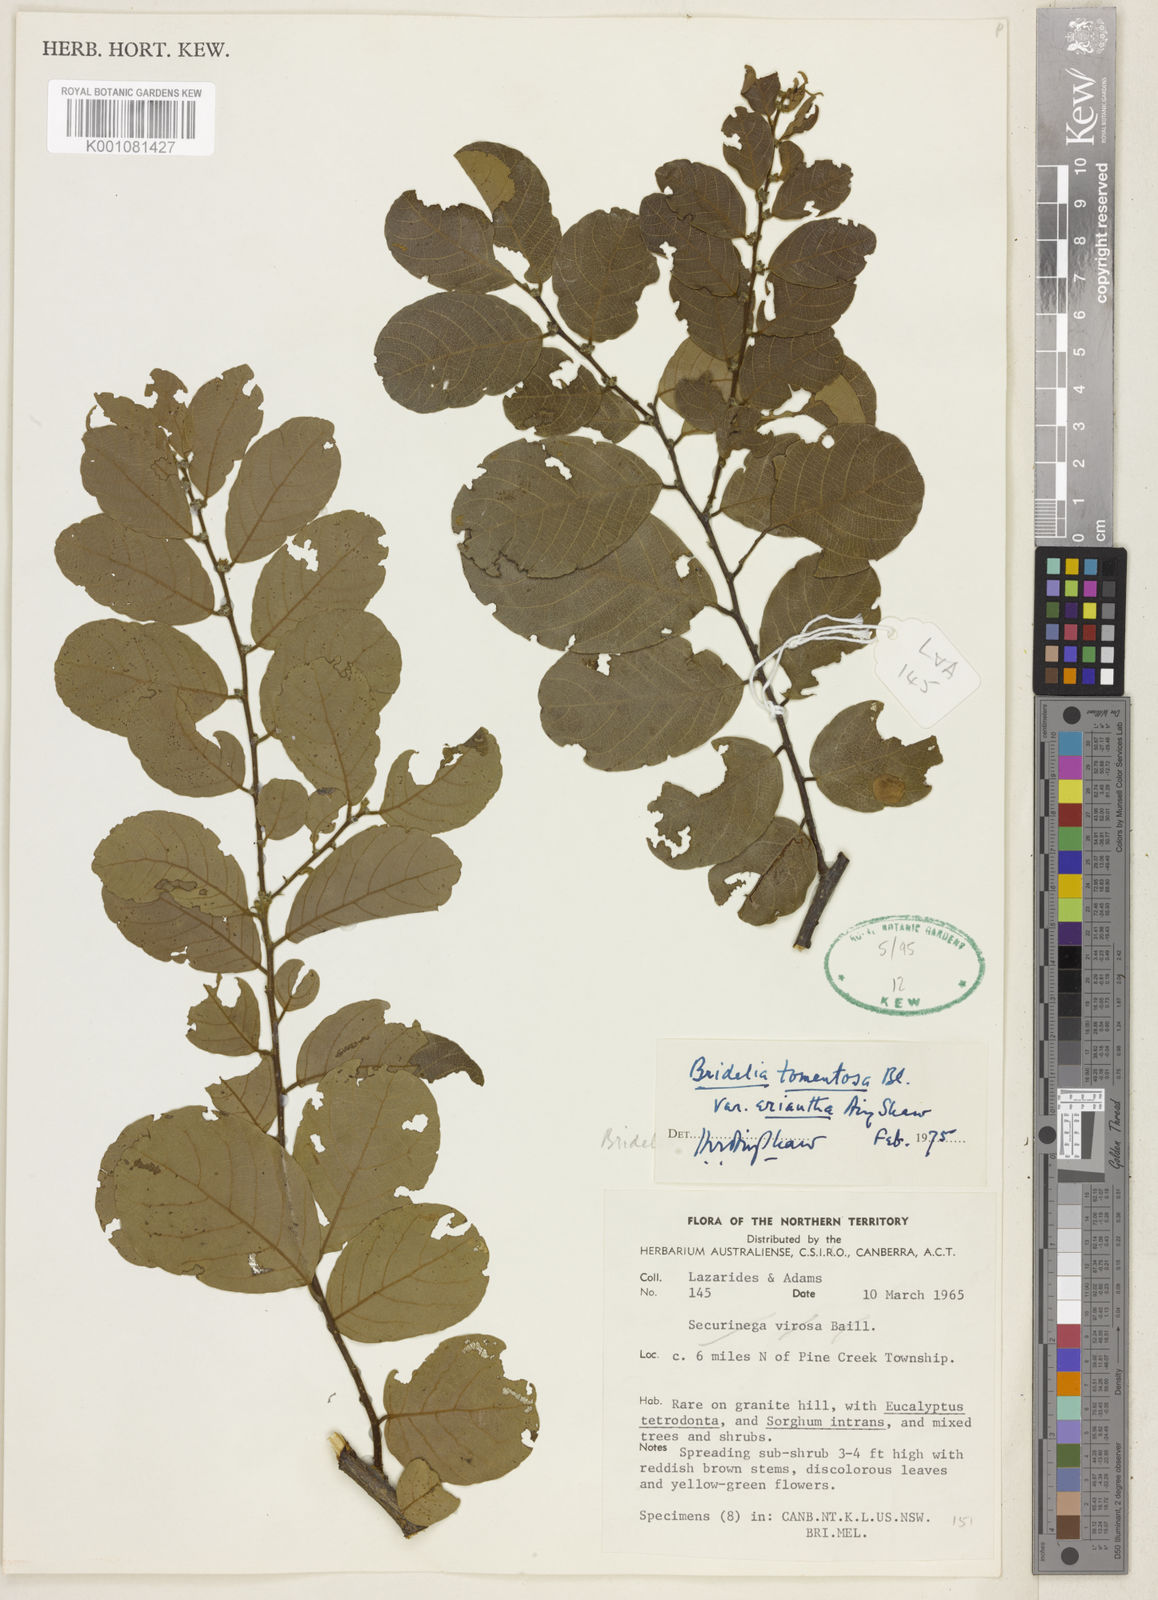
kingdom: Plantae
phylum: Tracheophyta
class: Magnoliopsida
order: Malpighiales
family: Phyllanthaceae
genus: Bridelia
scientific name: Bridelia tomentosa
